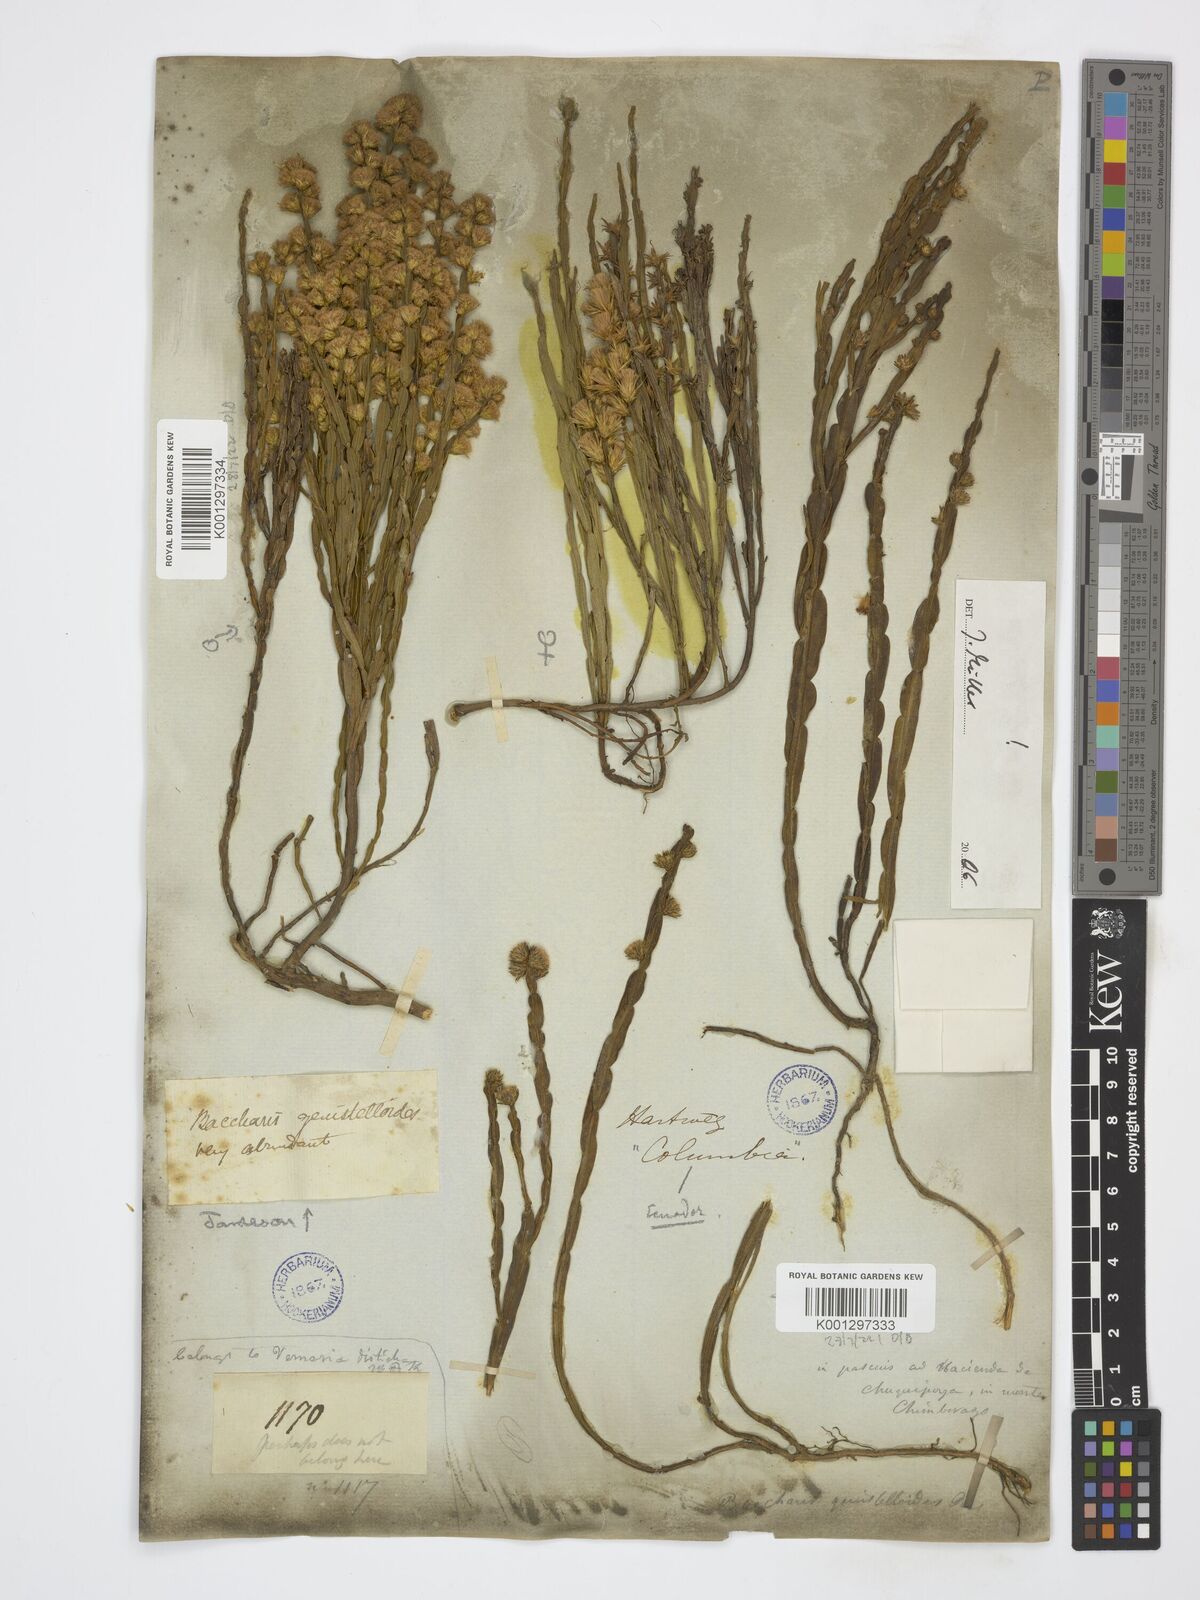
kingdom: Plantae
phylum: Tracheophyta
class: Magnoliopsida
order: Asterales
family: Asteraceae
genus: Baccharis
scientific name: Baccharis genistelloides
